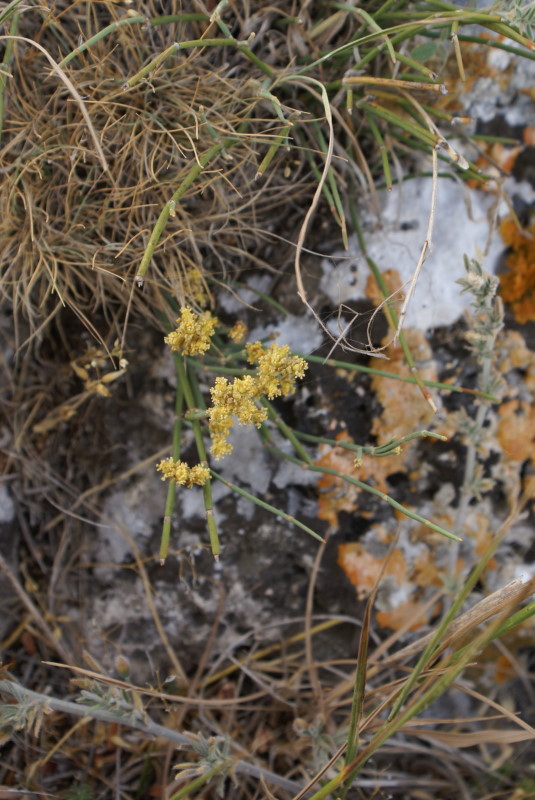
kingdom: Plantae
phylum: Tracheophyta
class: Gnetopsida
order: Ephedrales
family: Ephedraceae
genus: Ephedra
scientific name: Ephedra distachya
